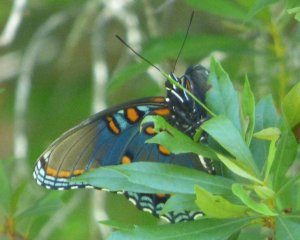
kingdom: Animalia
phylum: Arthropoda
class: Insecta
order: Lepidoptera
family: Nymphalidae
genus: Limenitis
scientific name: Limenitis astyanax
